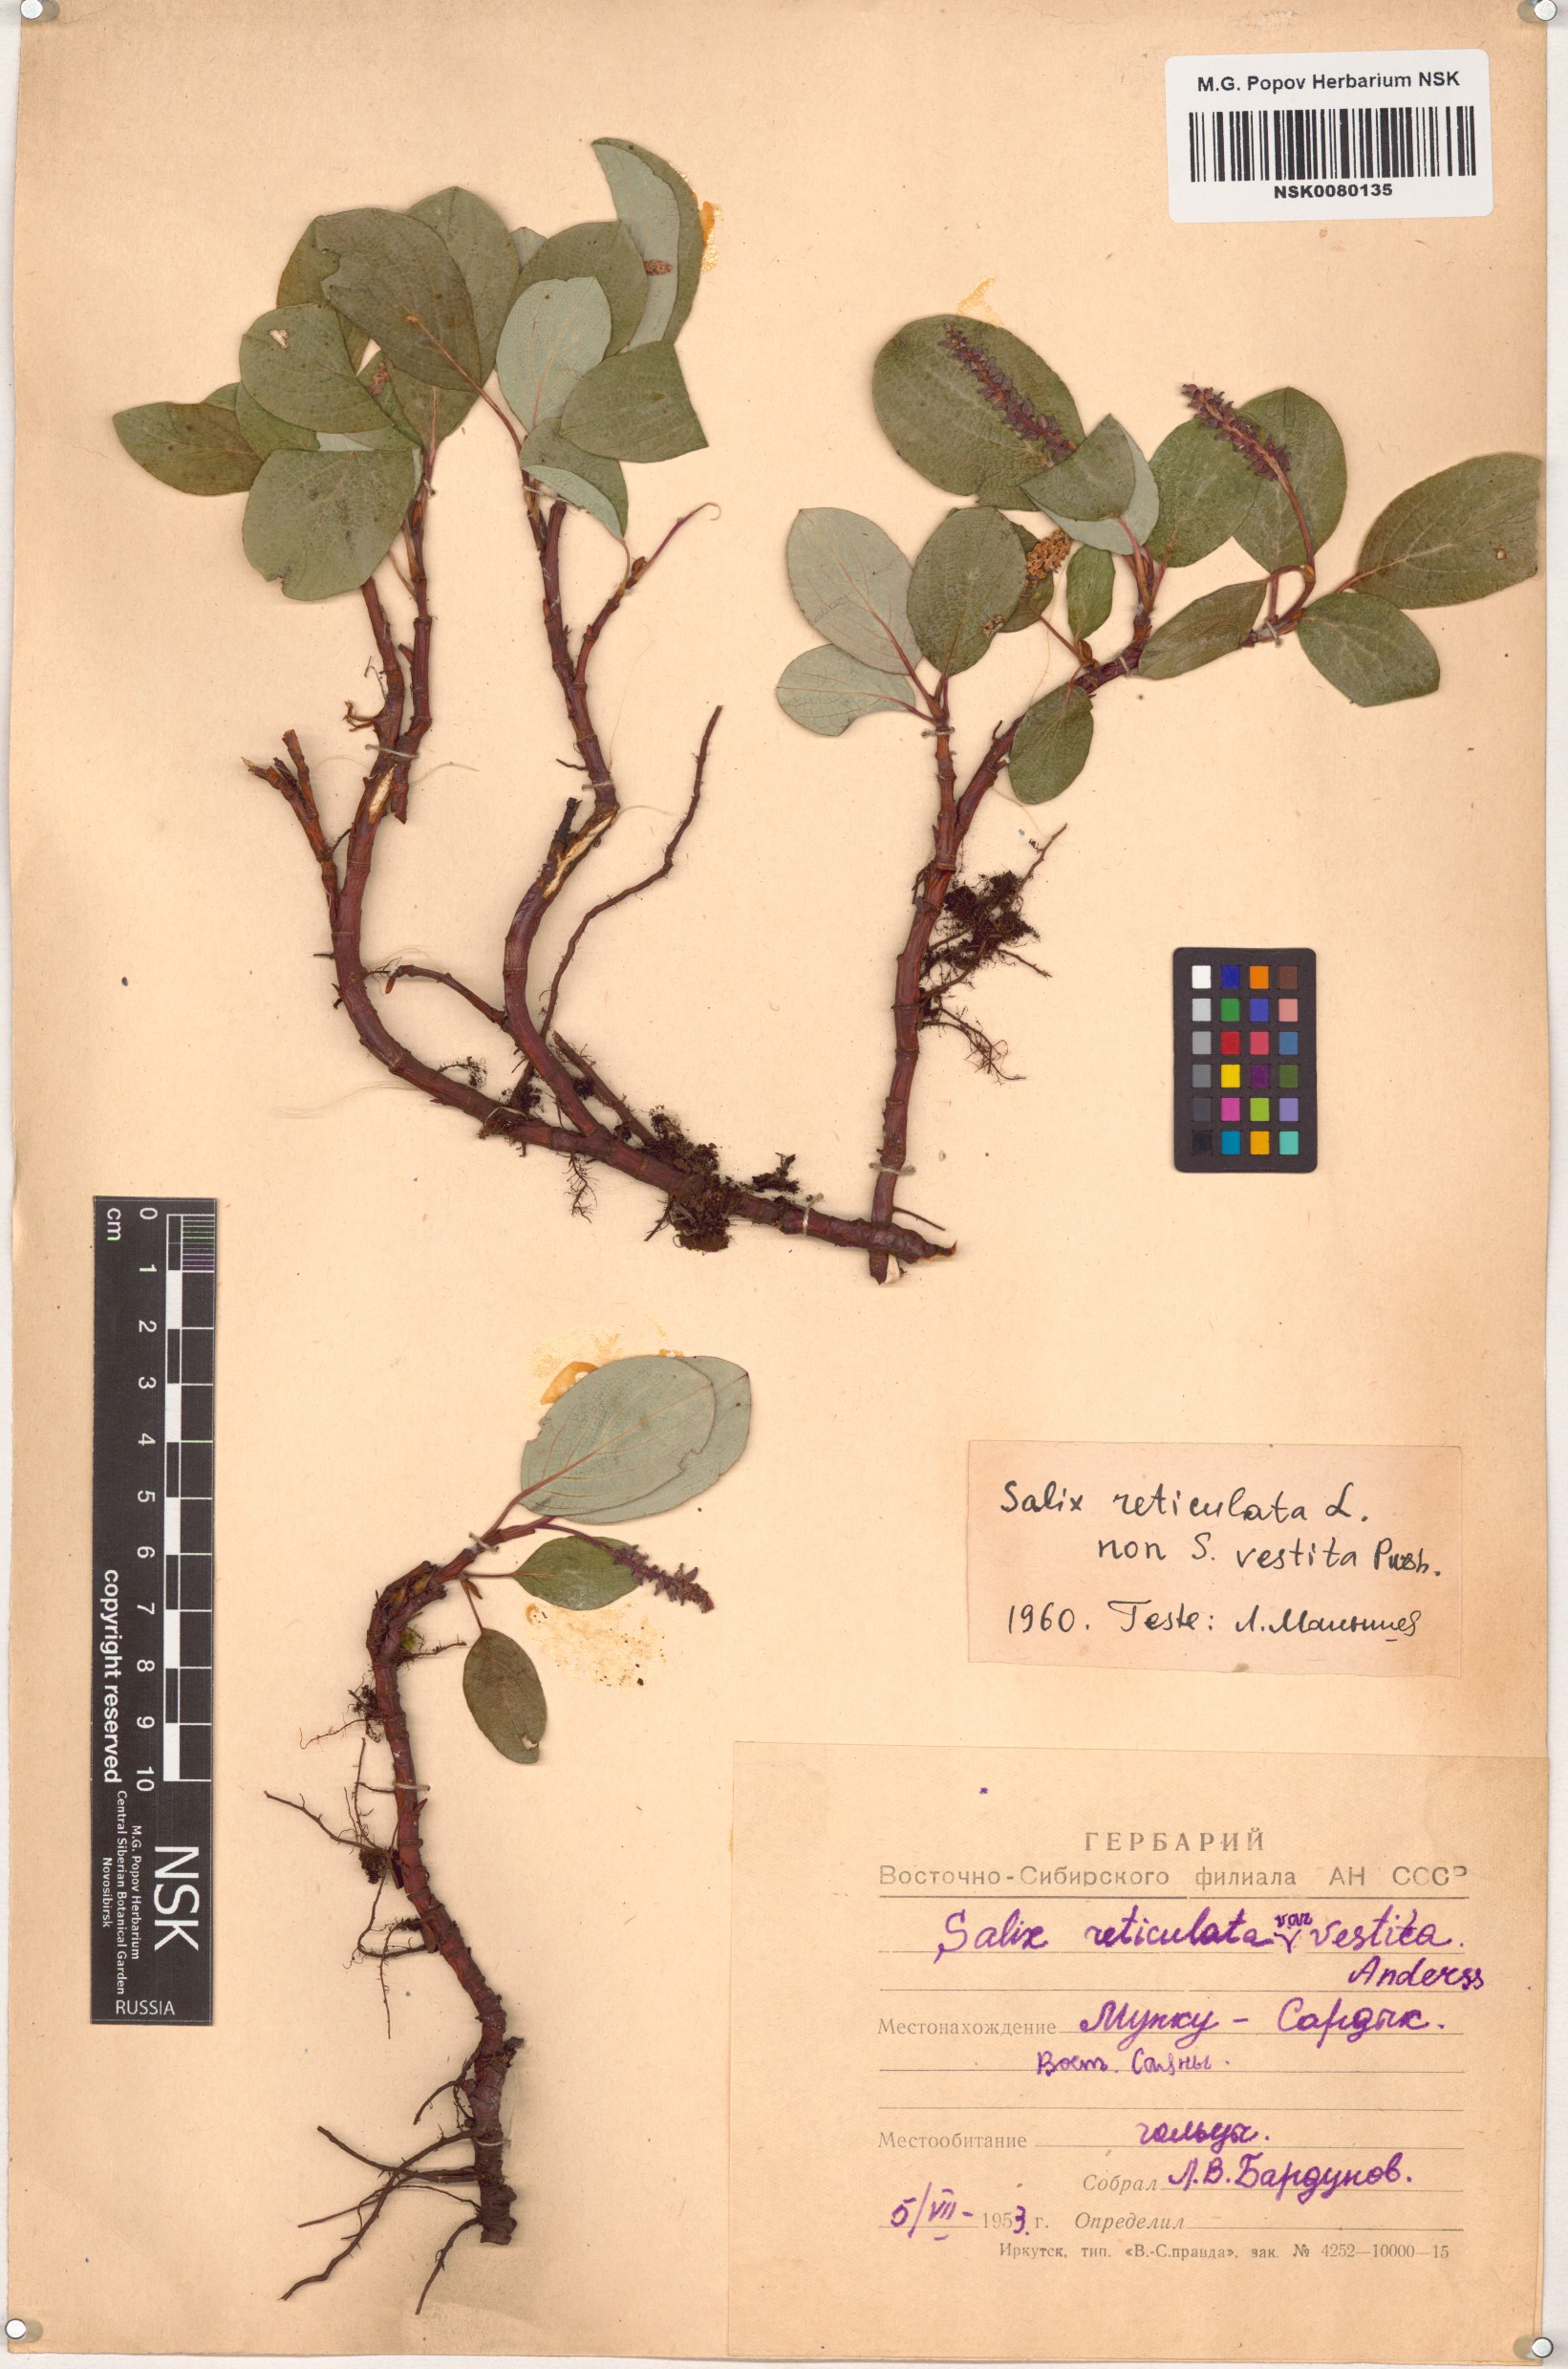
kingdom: Plantae
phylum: Tracheophyta
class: Magnoliopsida
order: Malpighiales
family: Salicaceae
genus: Salix
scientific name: Salix reticulata
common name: Net-leaved willow
